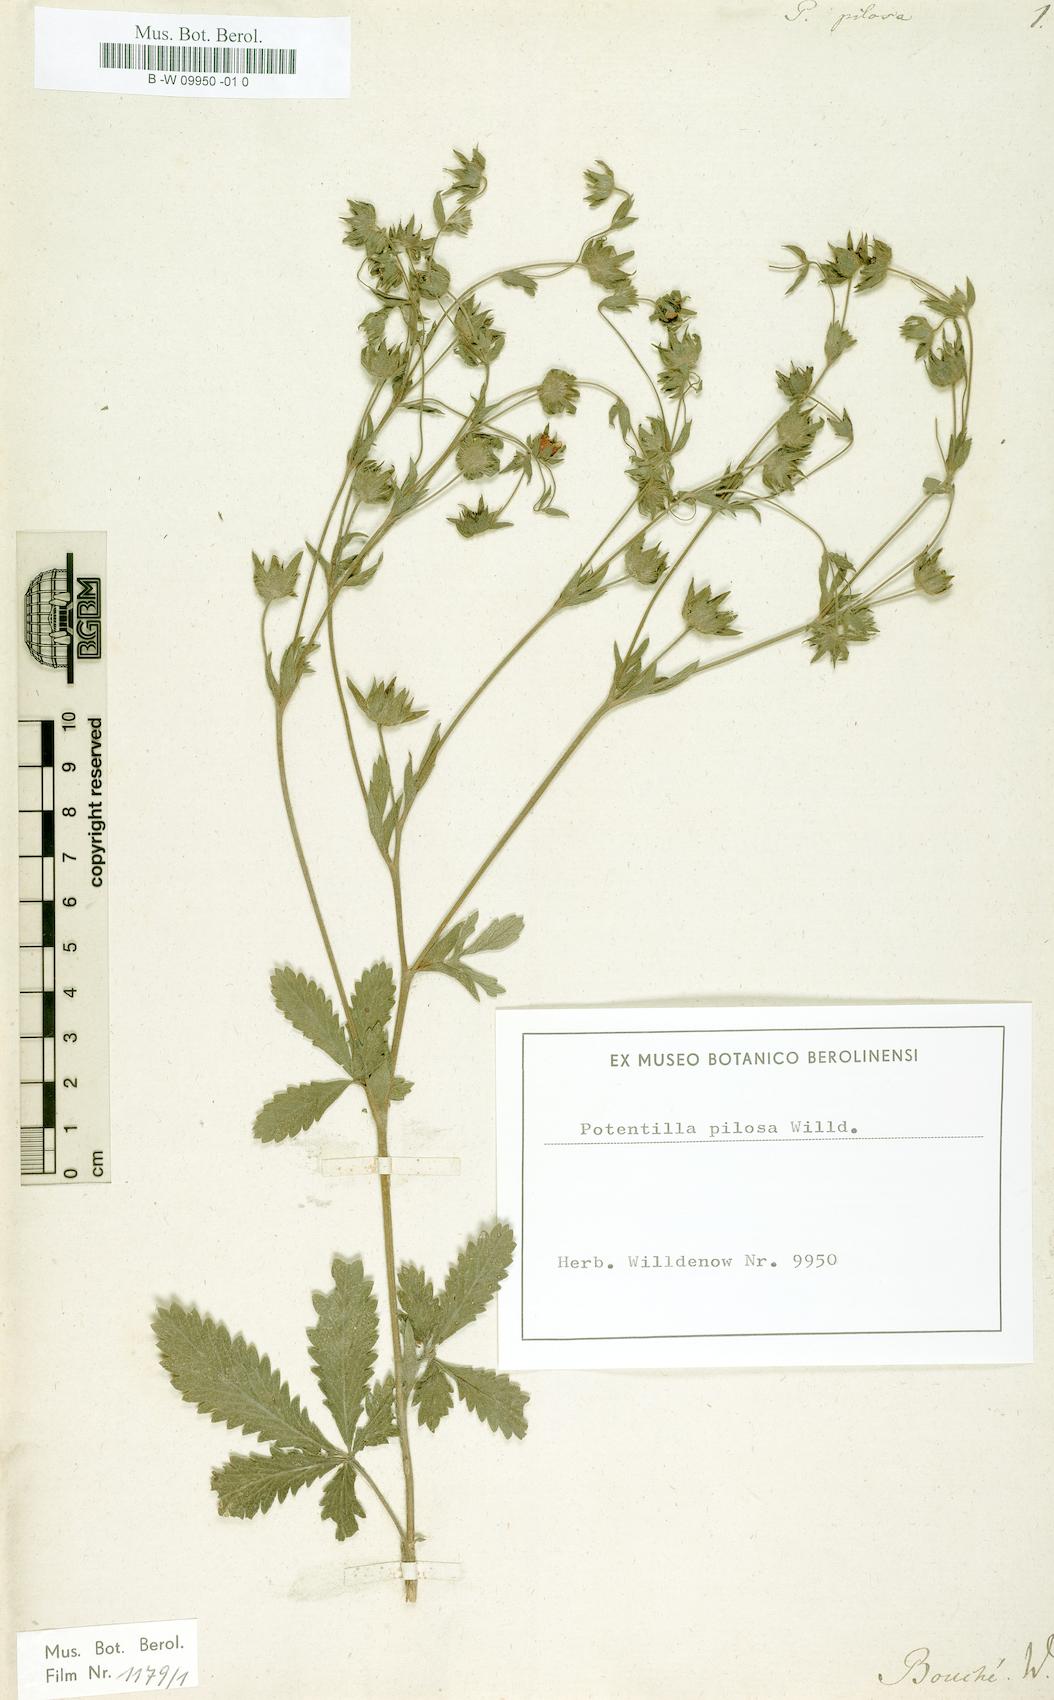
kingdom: Plantae
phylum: Tracheophyta
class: Magnoliopsida
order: Rosales
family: Rosaceae
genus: Potentilla
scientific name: Potentilla
